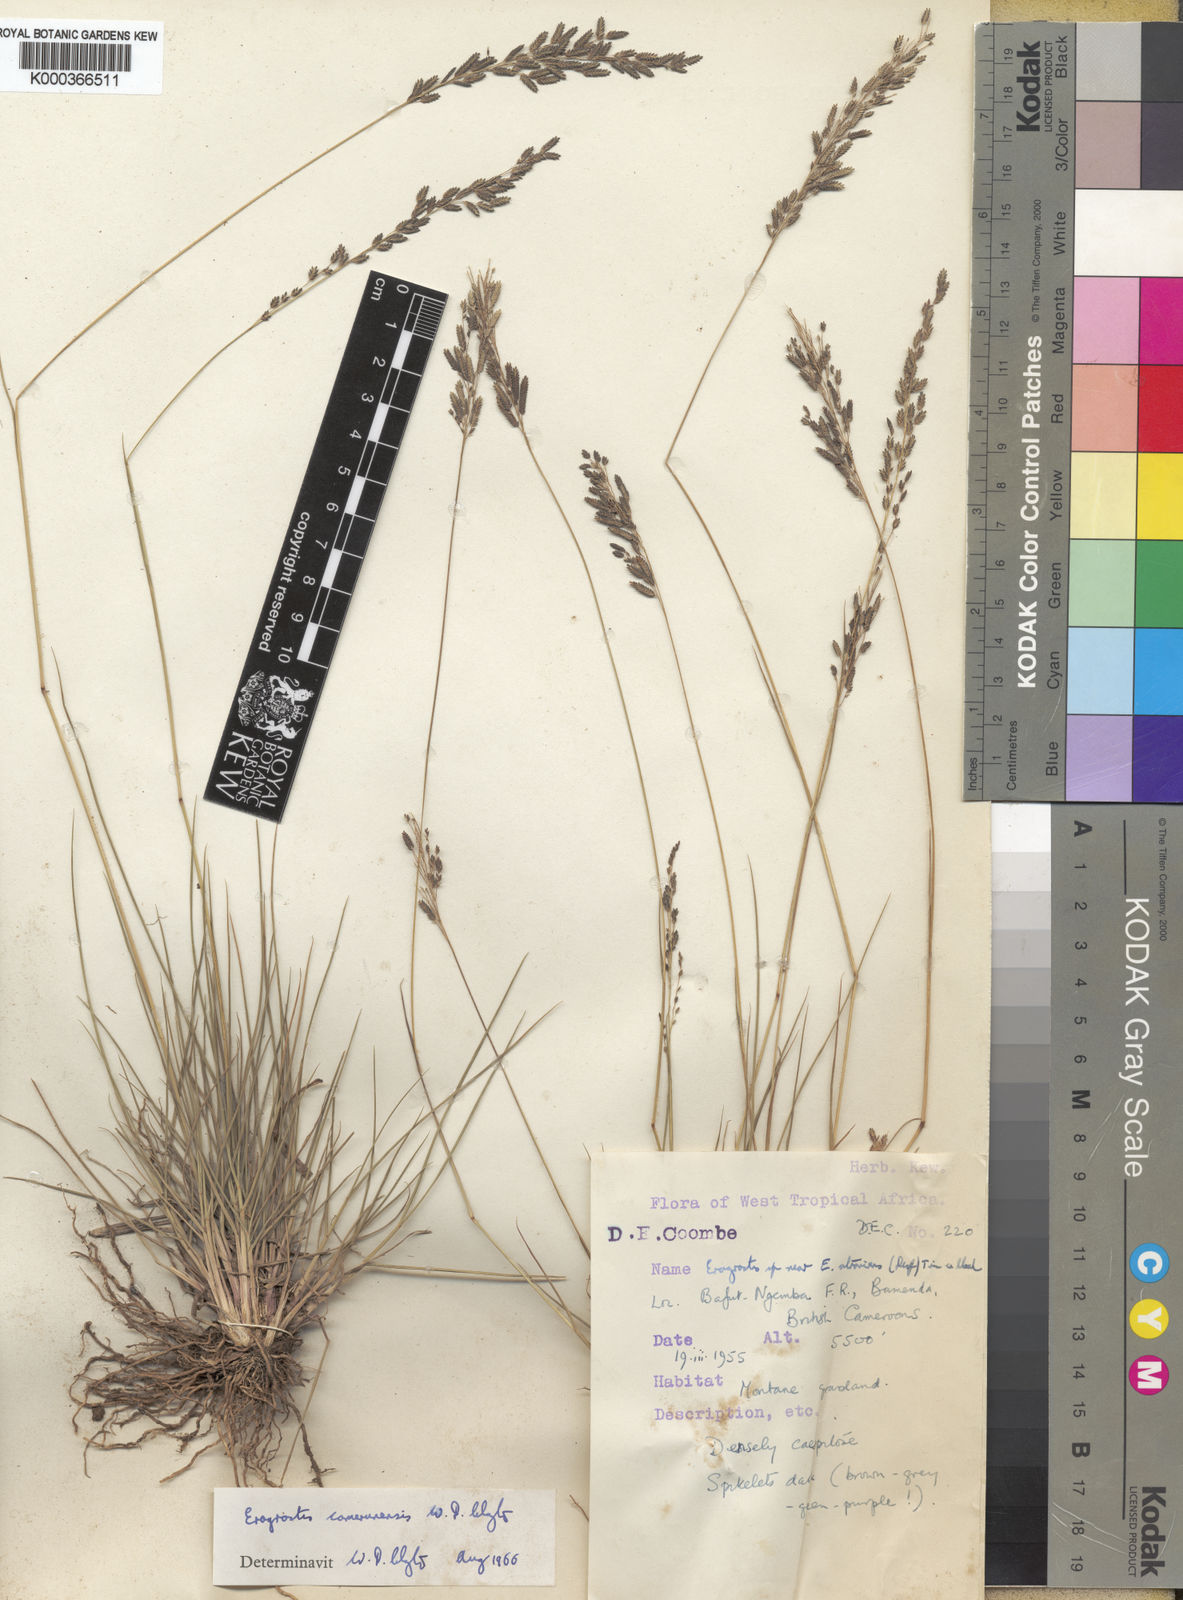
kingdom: Plantae
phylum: Tracheophyta
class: Liliopsida
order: Poales
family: Poaceae
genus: Eragrostis
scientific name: Eragrostis camerunensis
